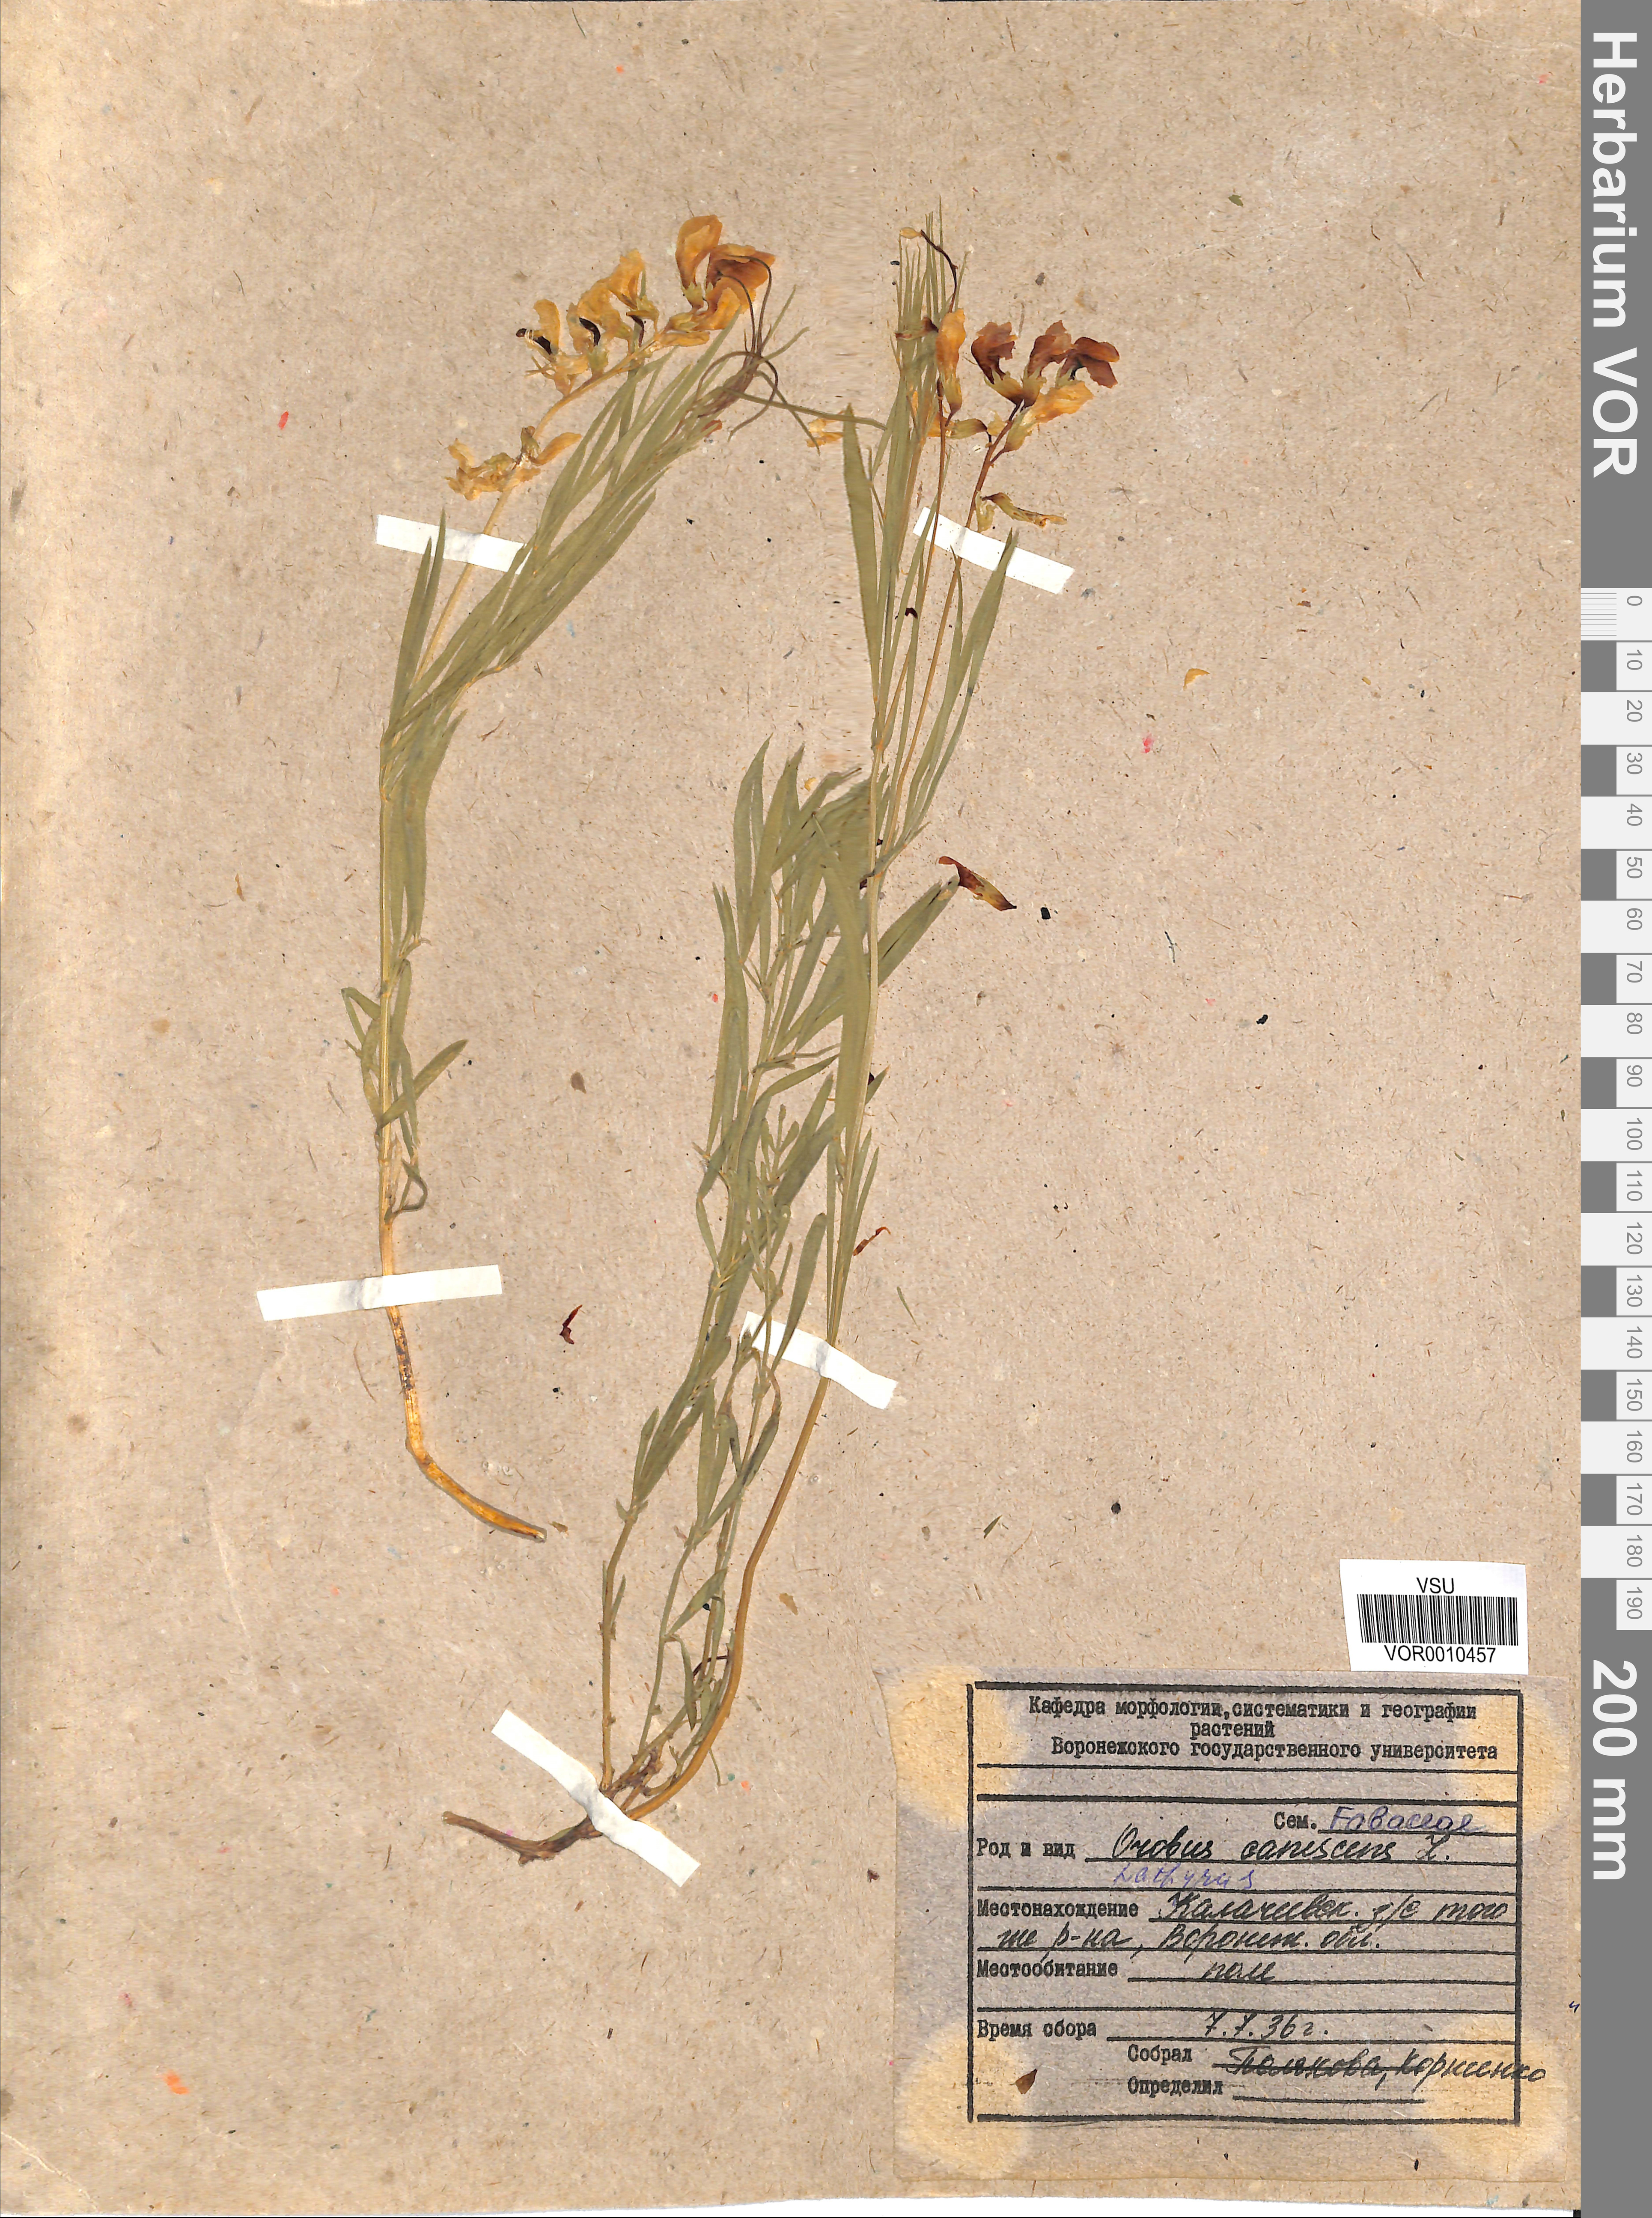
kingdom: Plantae
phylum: Tracheophyta
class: Magnoliopsida
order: Fabales
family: Fabaceae
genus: Lathyrus
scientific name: Lathyrus filiformis
